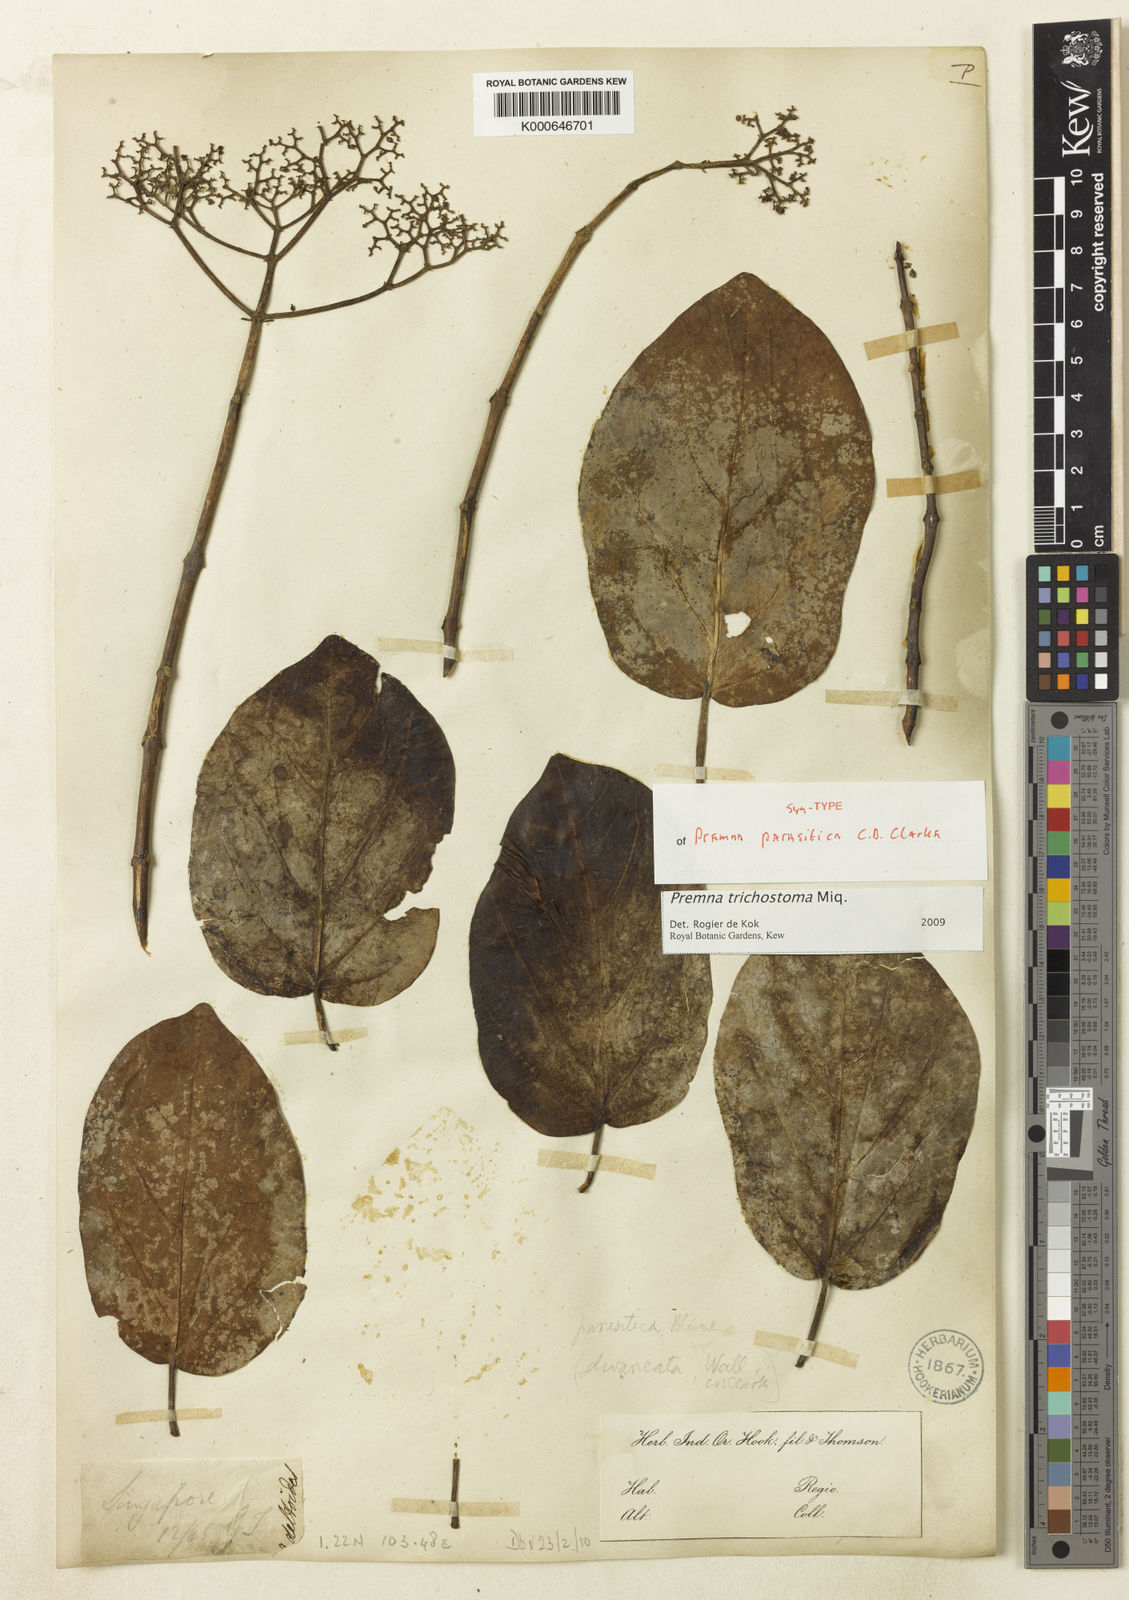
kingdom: Plantae
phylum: Tracheophyta
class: Magnoliopsida
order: Lamiales
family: Lamiaceae
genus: Premna
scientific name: Premna trichostoma
